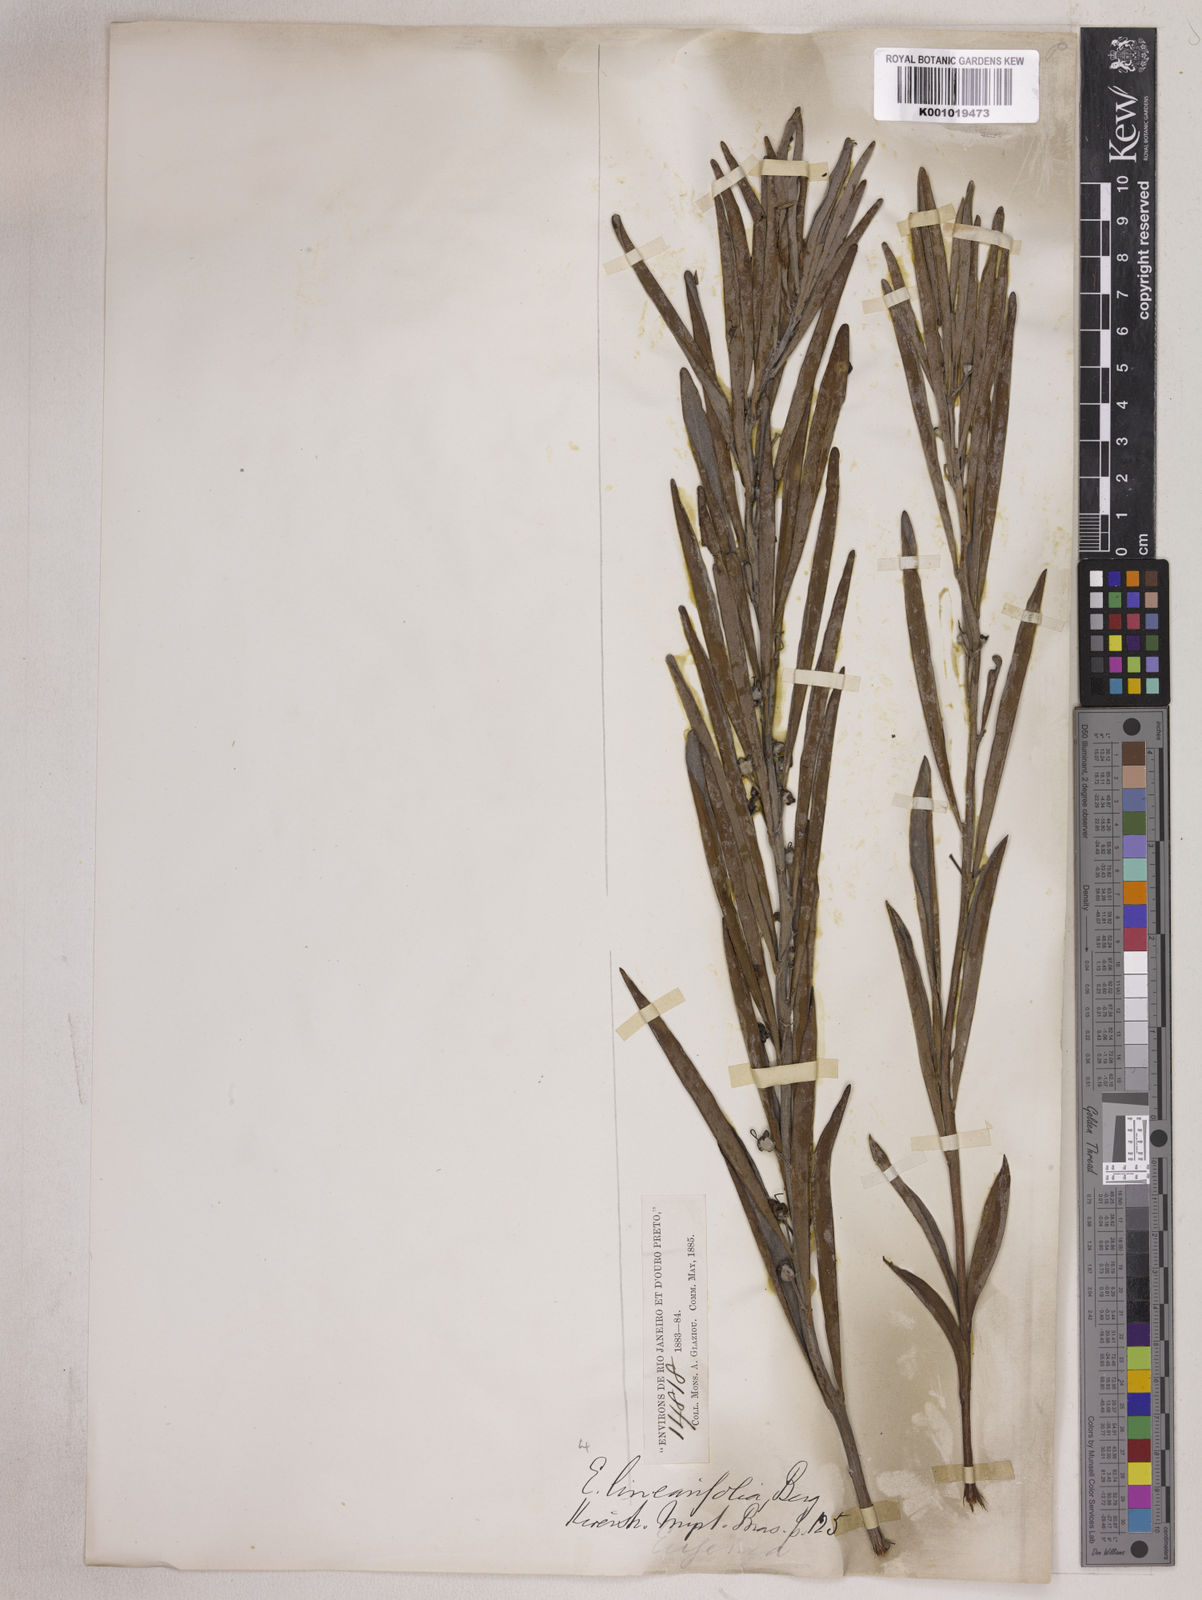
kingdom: Plantae
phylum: Tracheophyta
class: Magnoliopsida
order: Myrtales
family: Myrtaceae
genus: Eugenia
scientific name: Eugenia punicifolia
